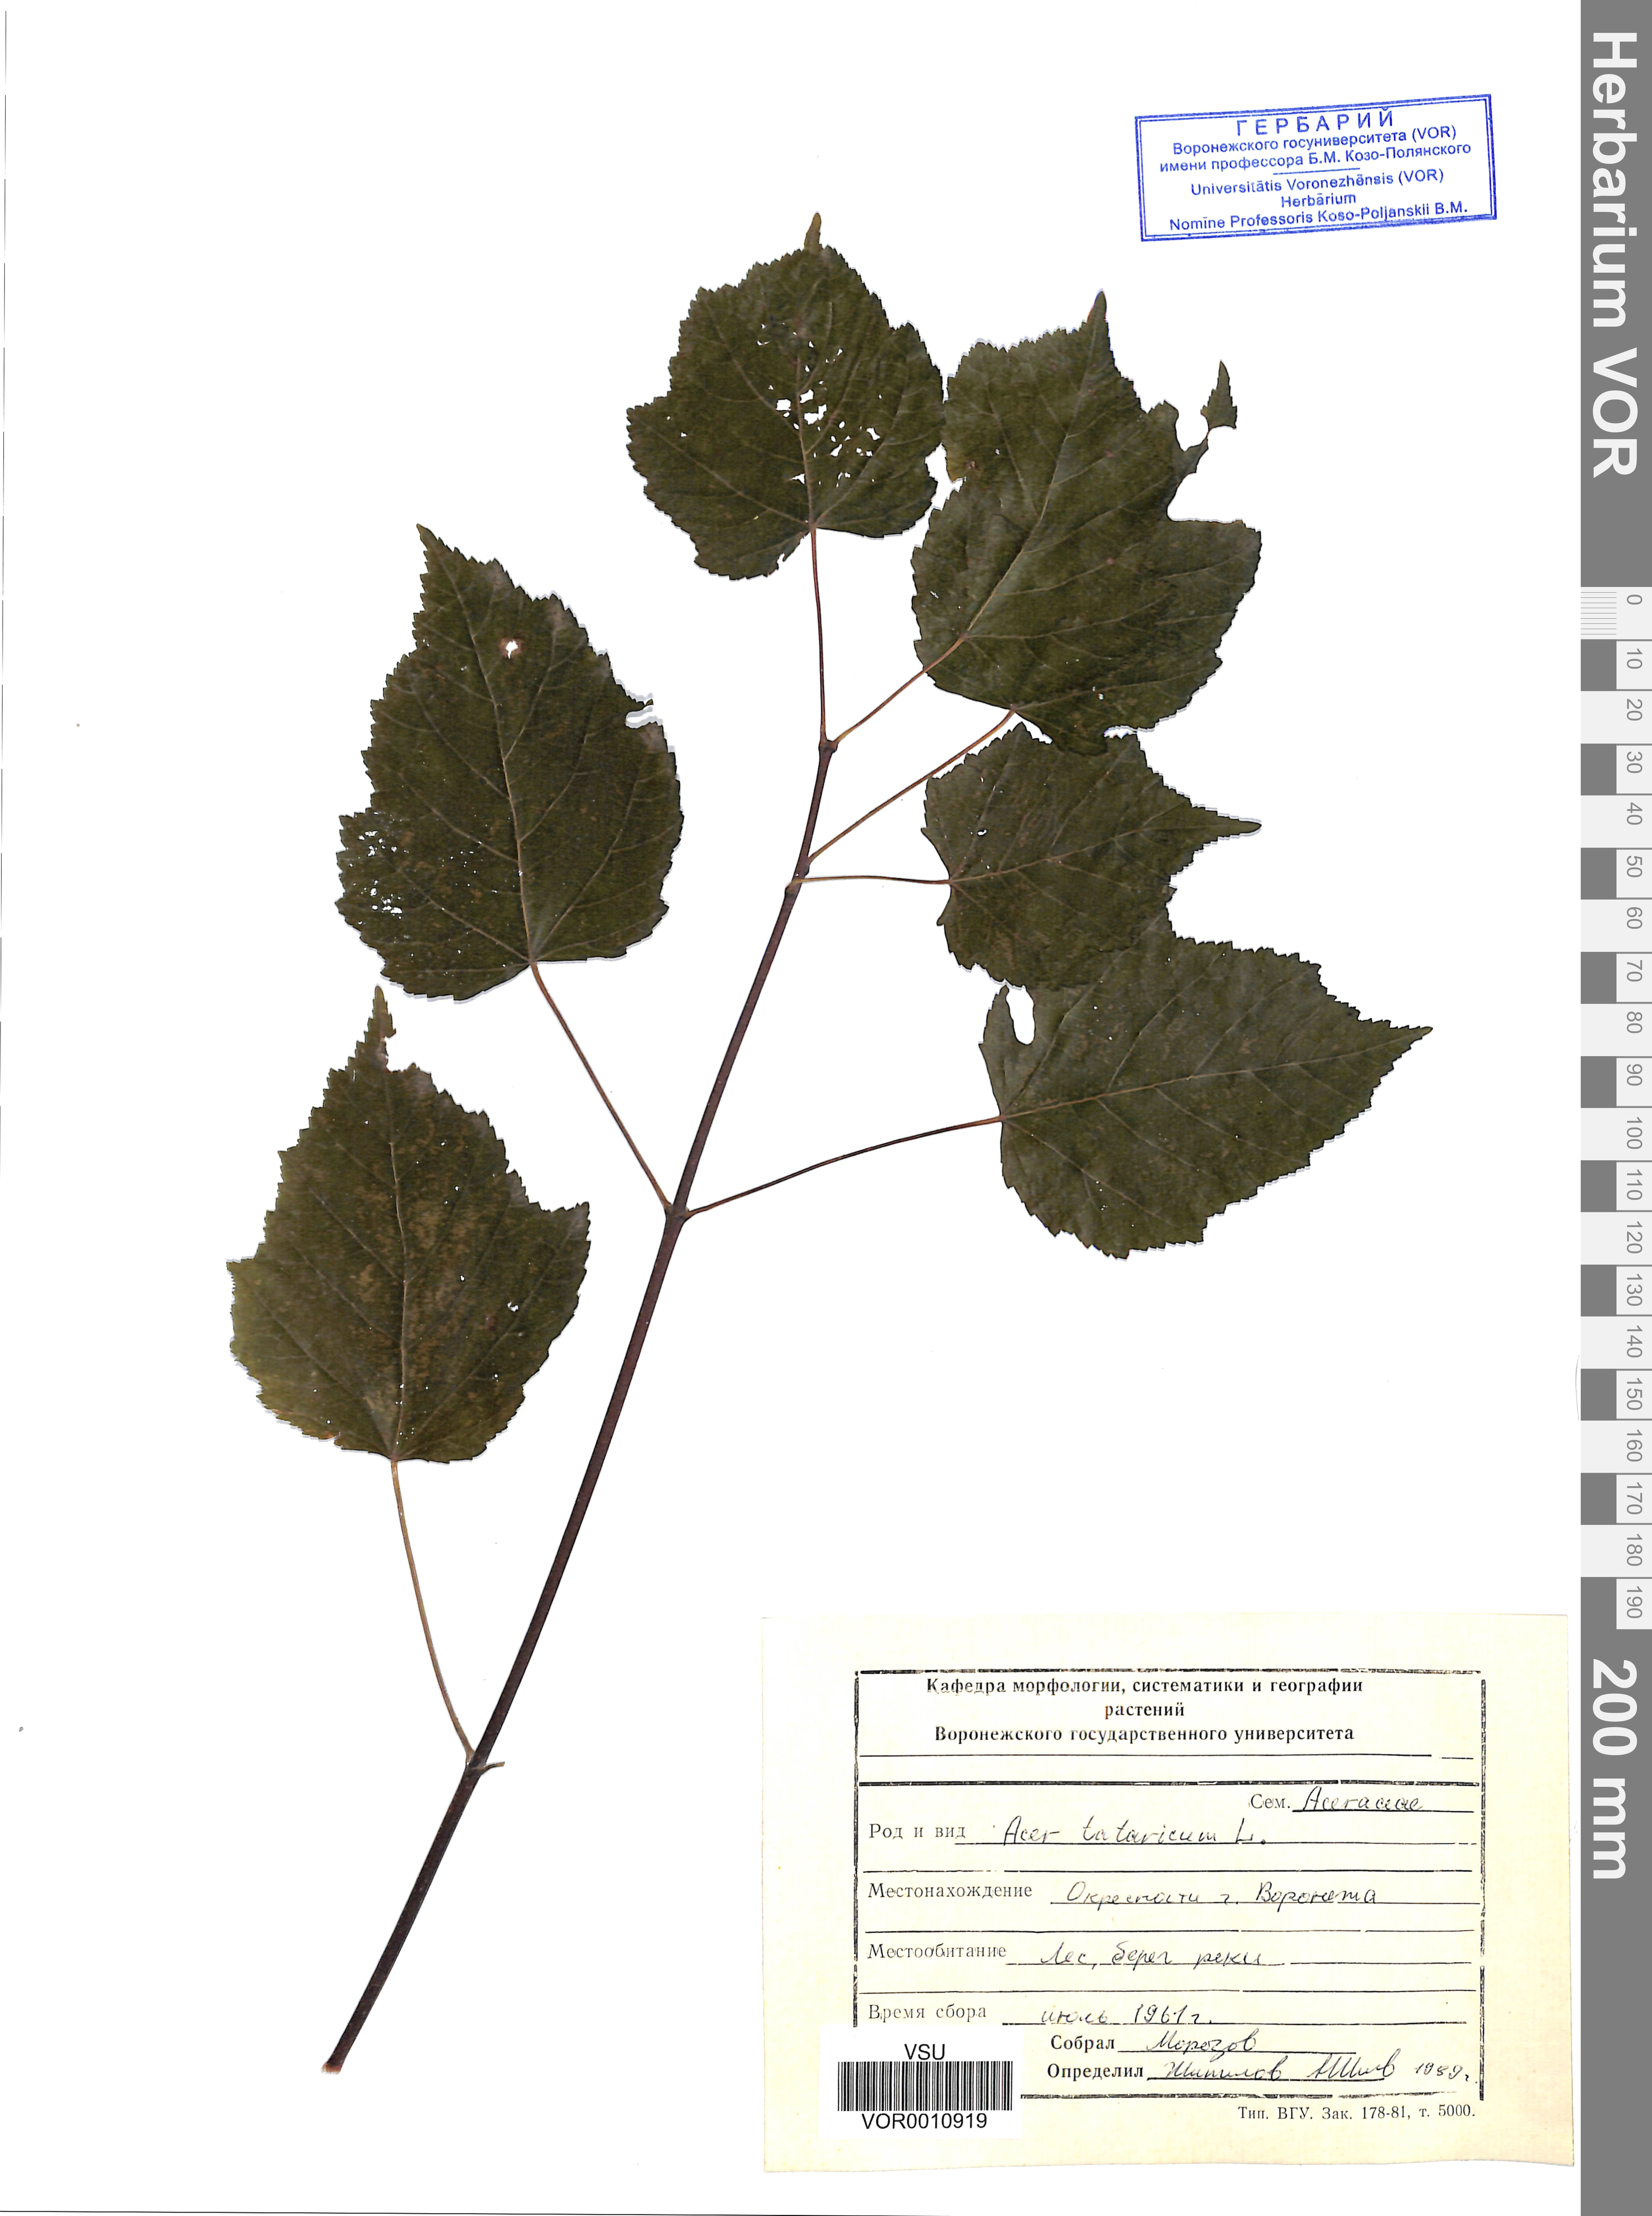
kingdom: Plantae
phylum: Tracheophyta
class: Magnoliopsida
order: Sapindales
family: Sapindaceae
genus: Acer
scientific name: Acer tataricum
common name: Tartar maple
